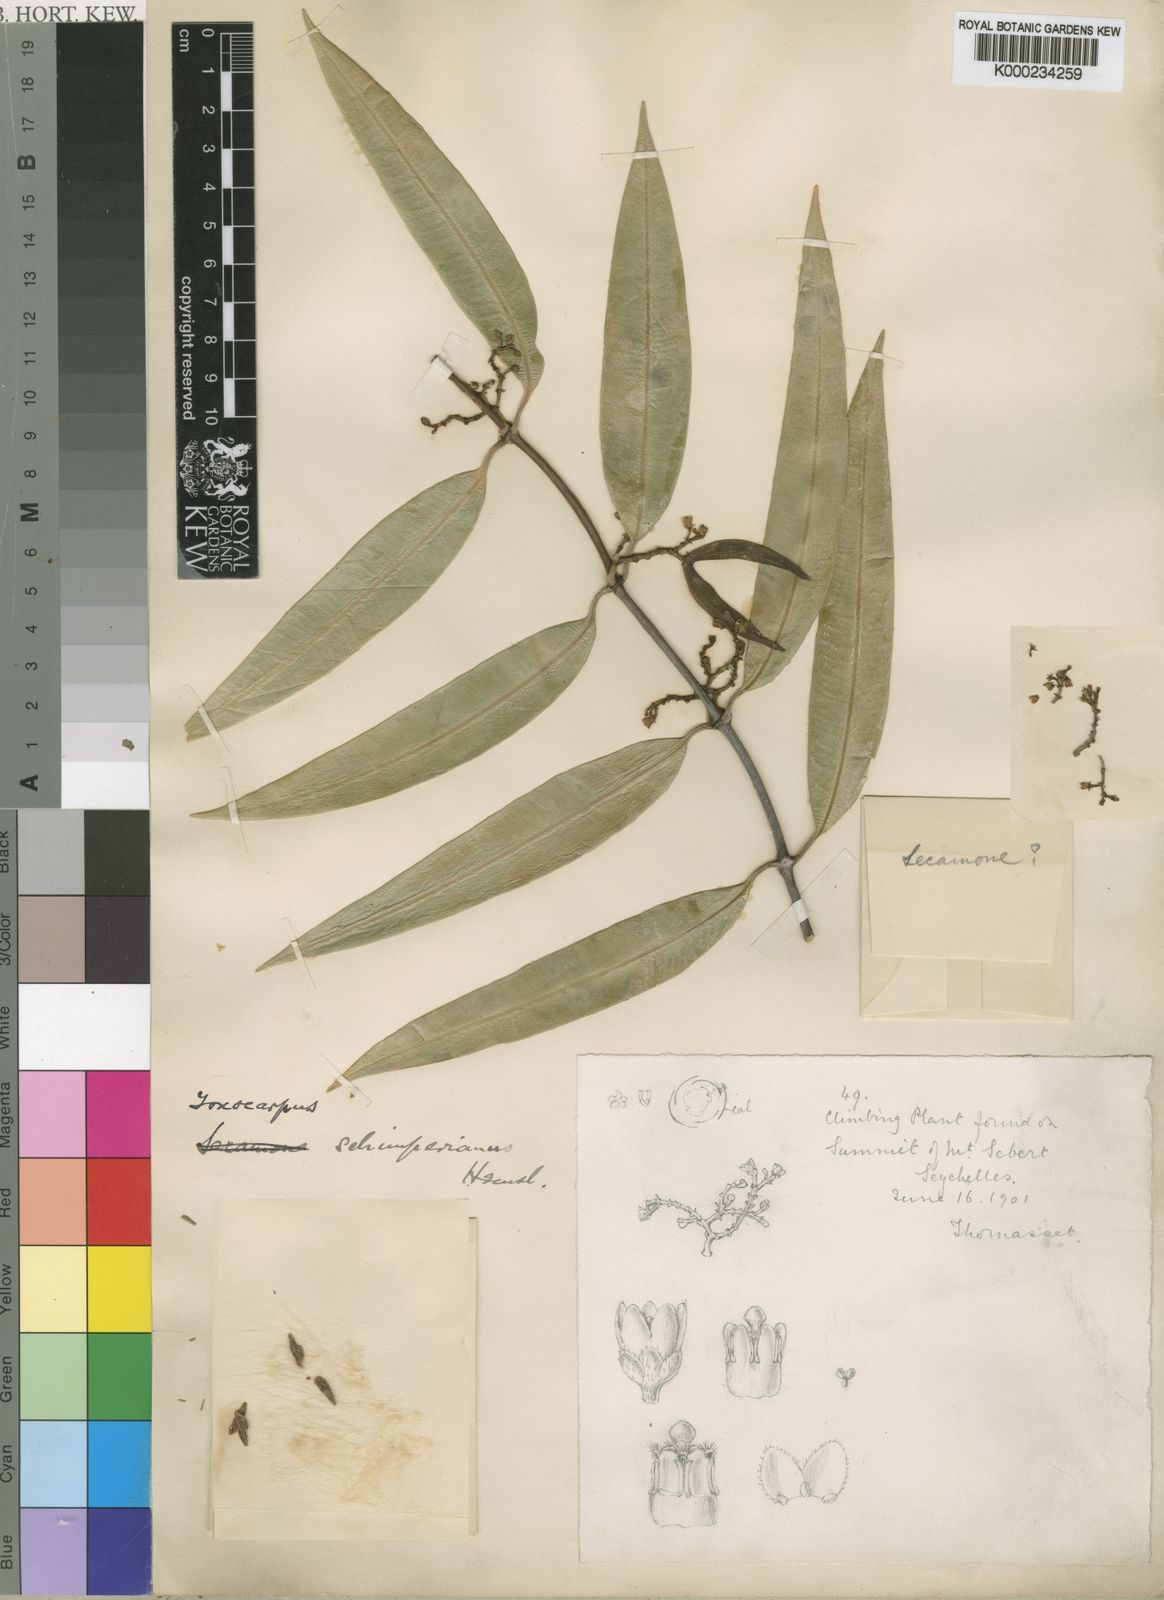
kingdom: Plantae
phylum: Tracheophyta
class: Magnoliopsida
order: Gentianales
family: Apocynaceae
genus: Secamone
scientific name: Secamone schimperiana
